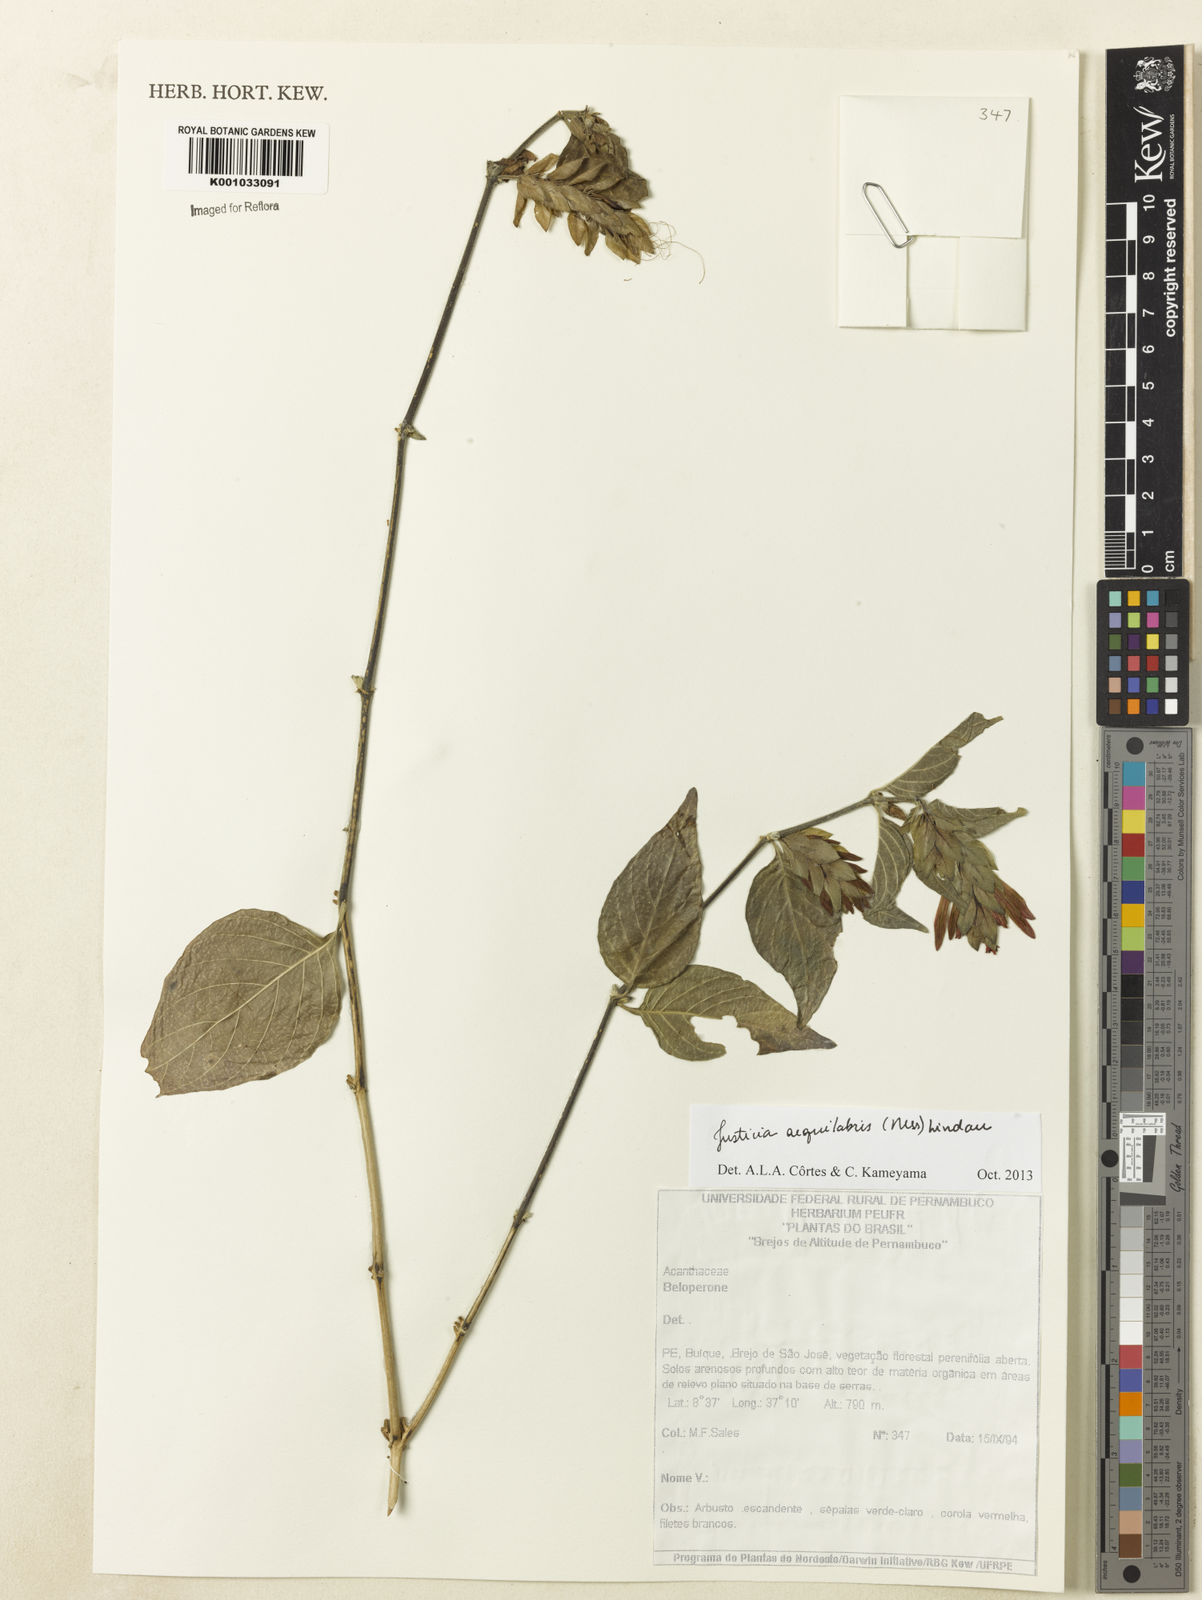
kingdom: Plantae
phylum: Tracheophyta
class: Magnoliopsida
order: Lamiales
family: Acanthaceae
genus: Justicia
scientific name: Justicia aequalis
